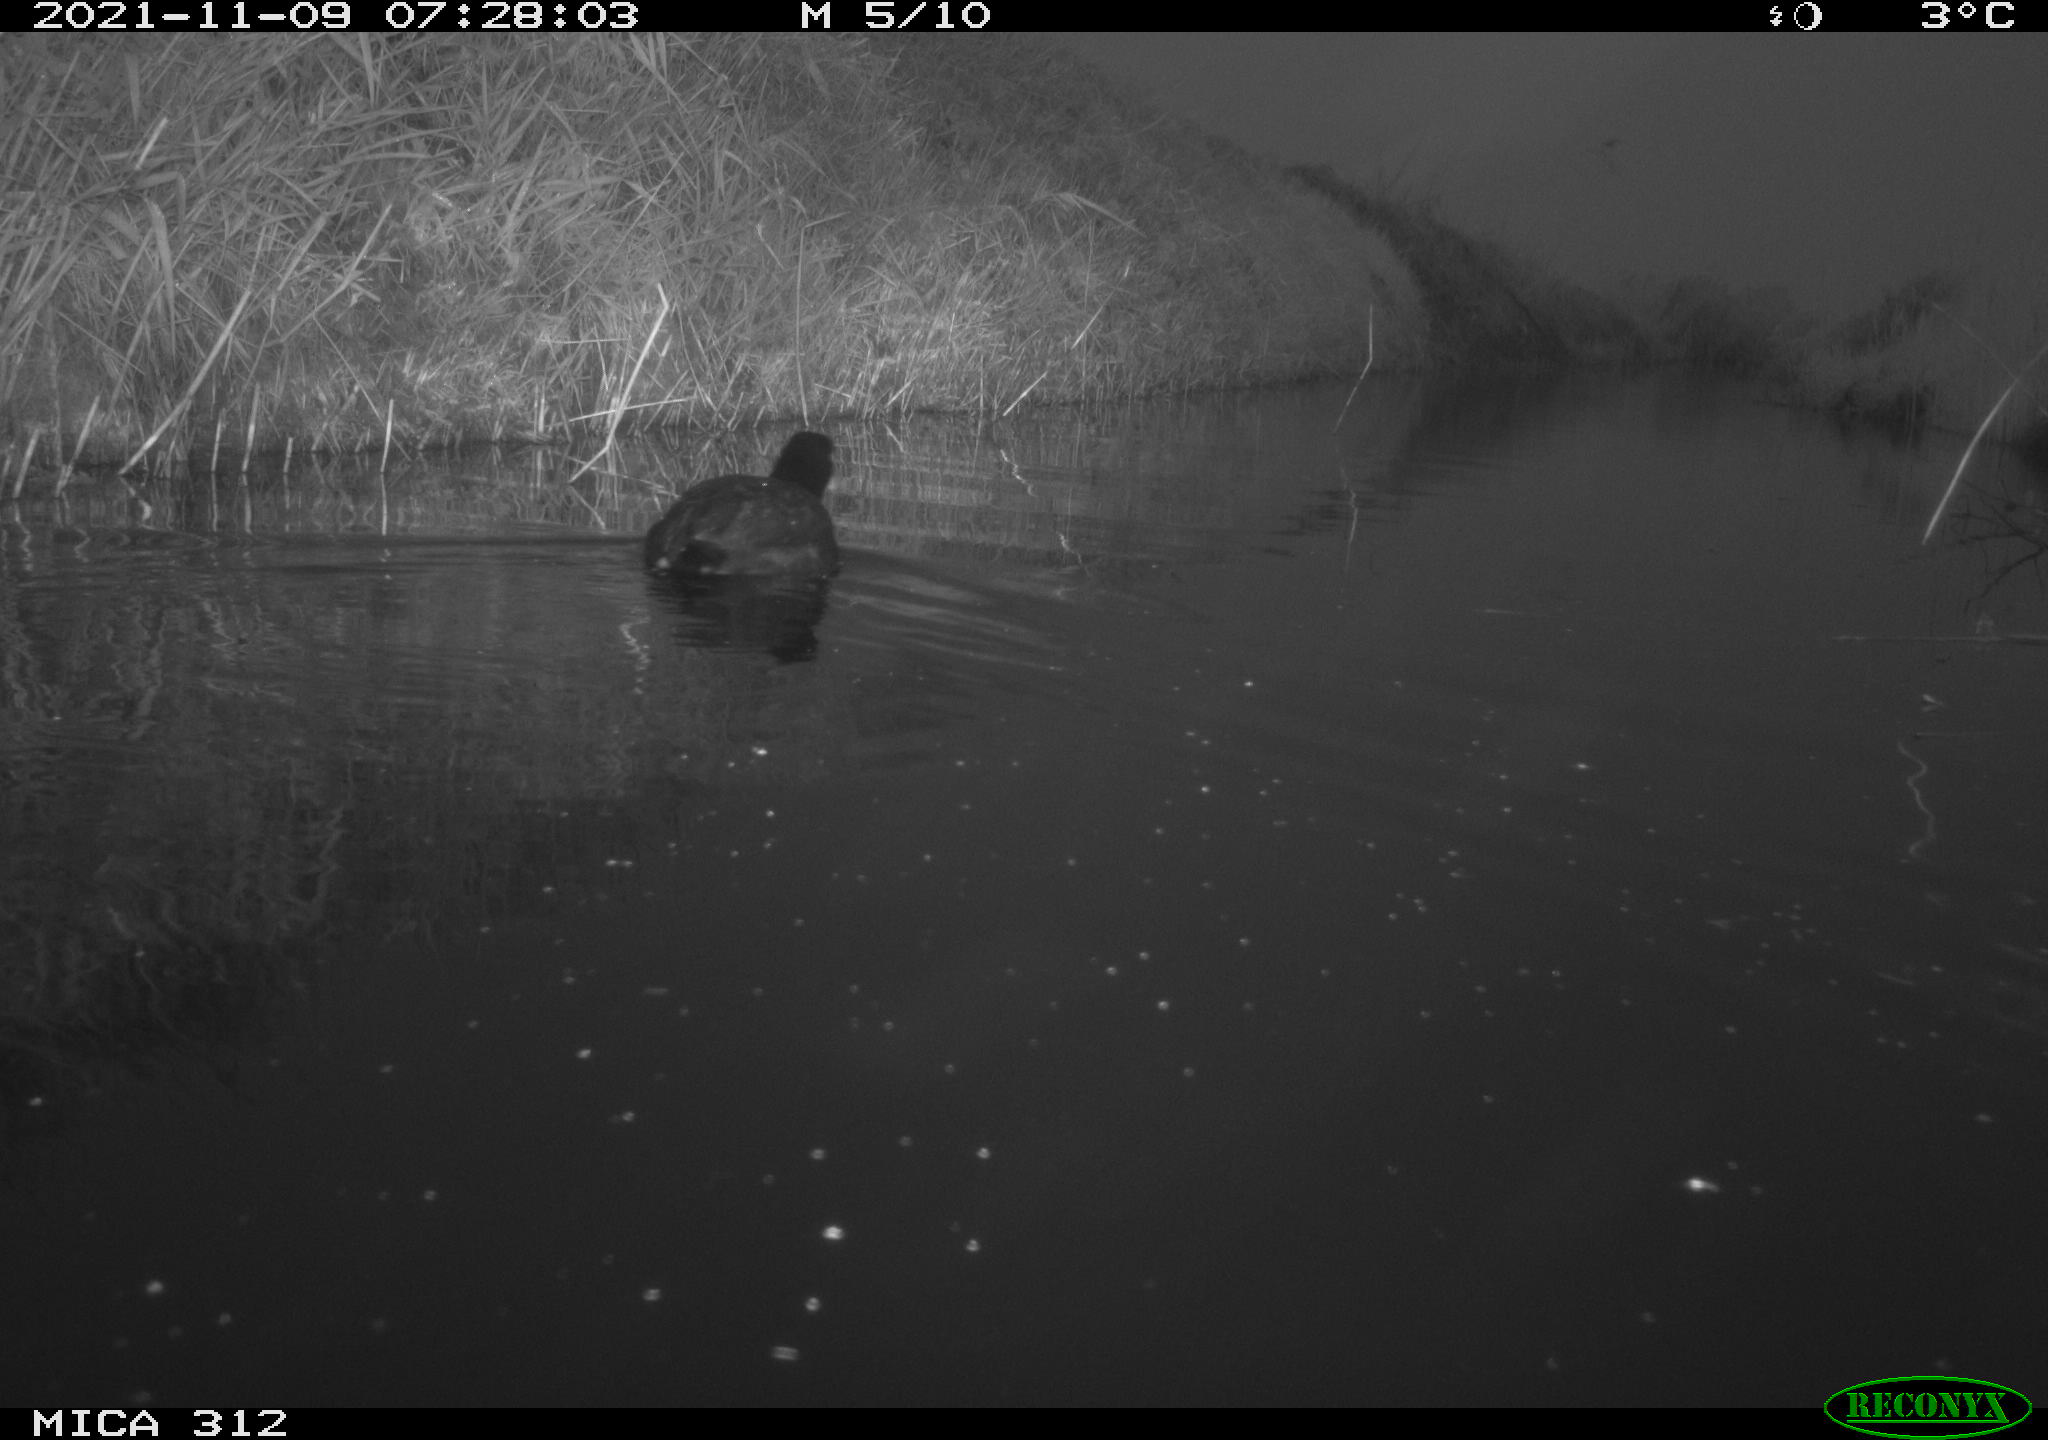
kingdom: Animalia
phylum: Chordata
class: Aves
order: Gruiformes
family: Rallidae
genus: Gallinula
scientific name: Gallinula chloropus
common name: Common moorhen
